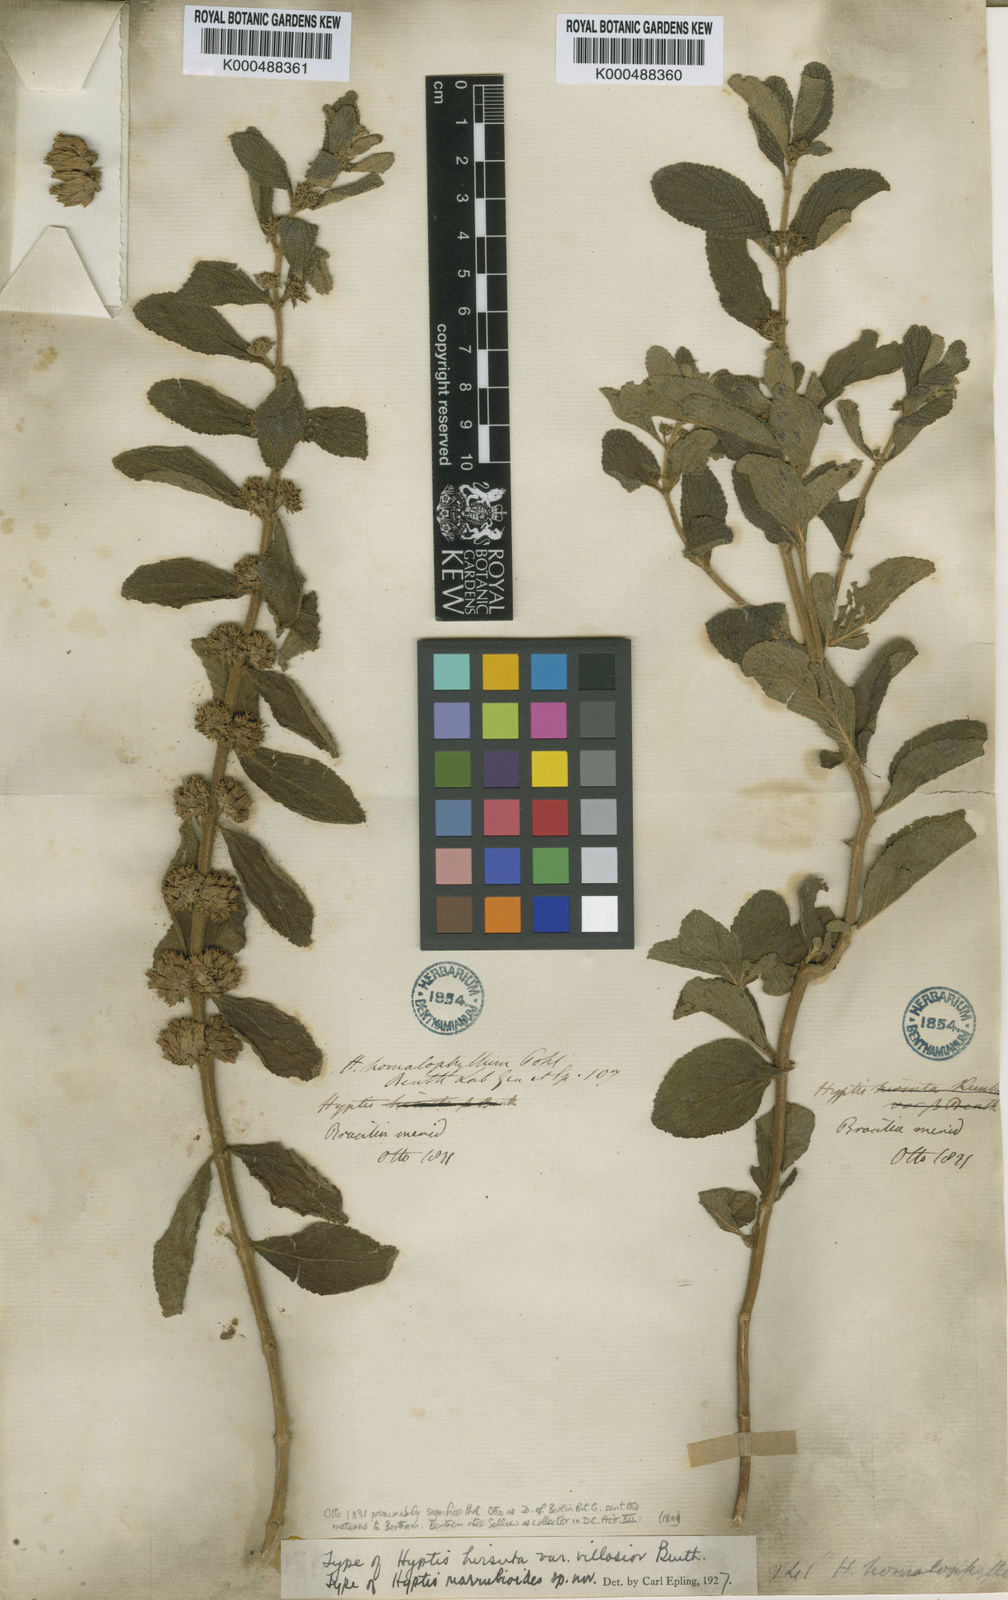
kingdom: Plantae
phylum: Tracheophyta
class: Magnoliopsida
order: Lamiales
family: Lamiaceae
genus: Hyptis
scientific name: Hyptis marrubioides
